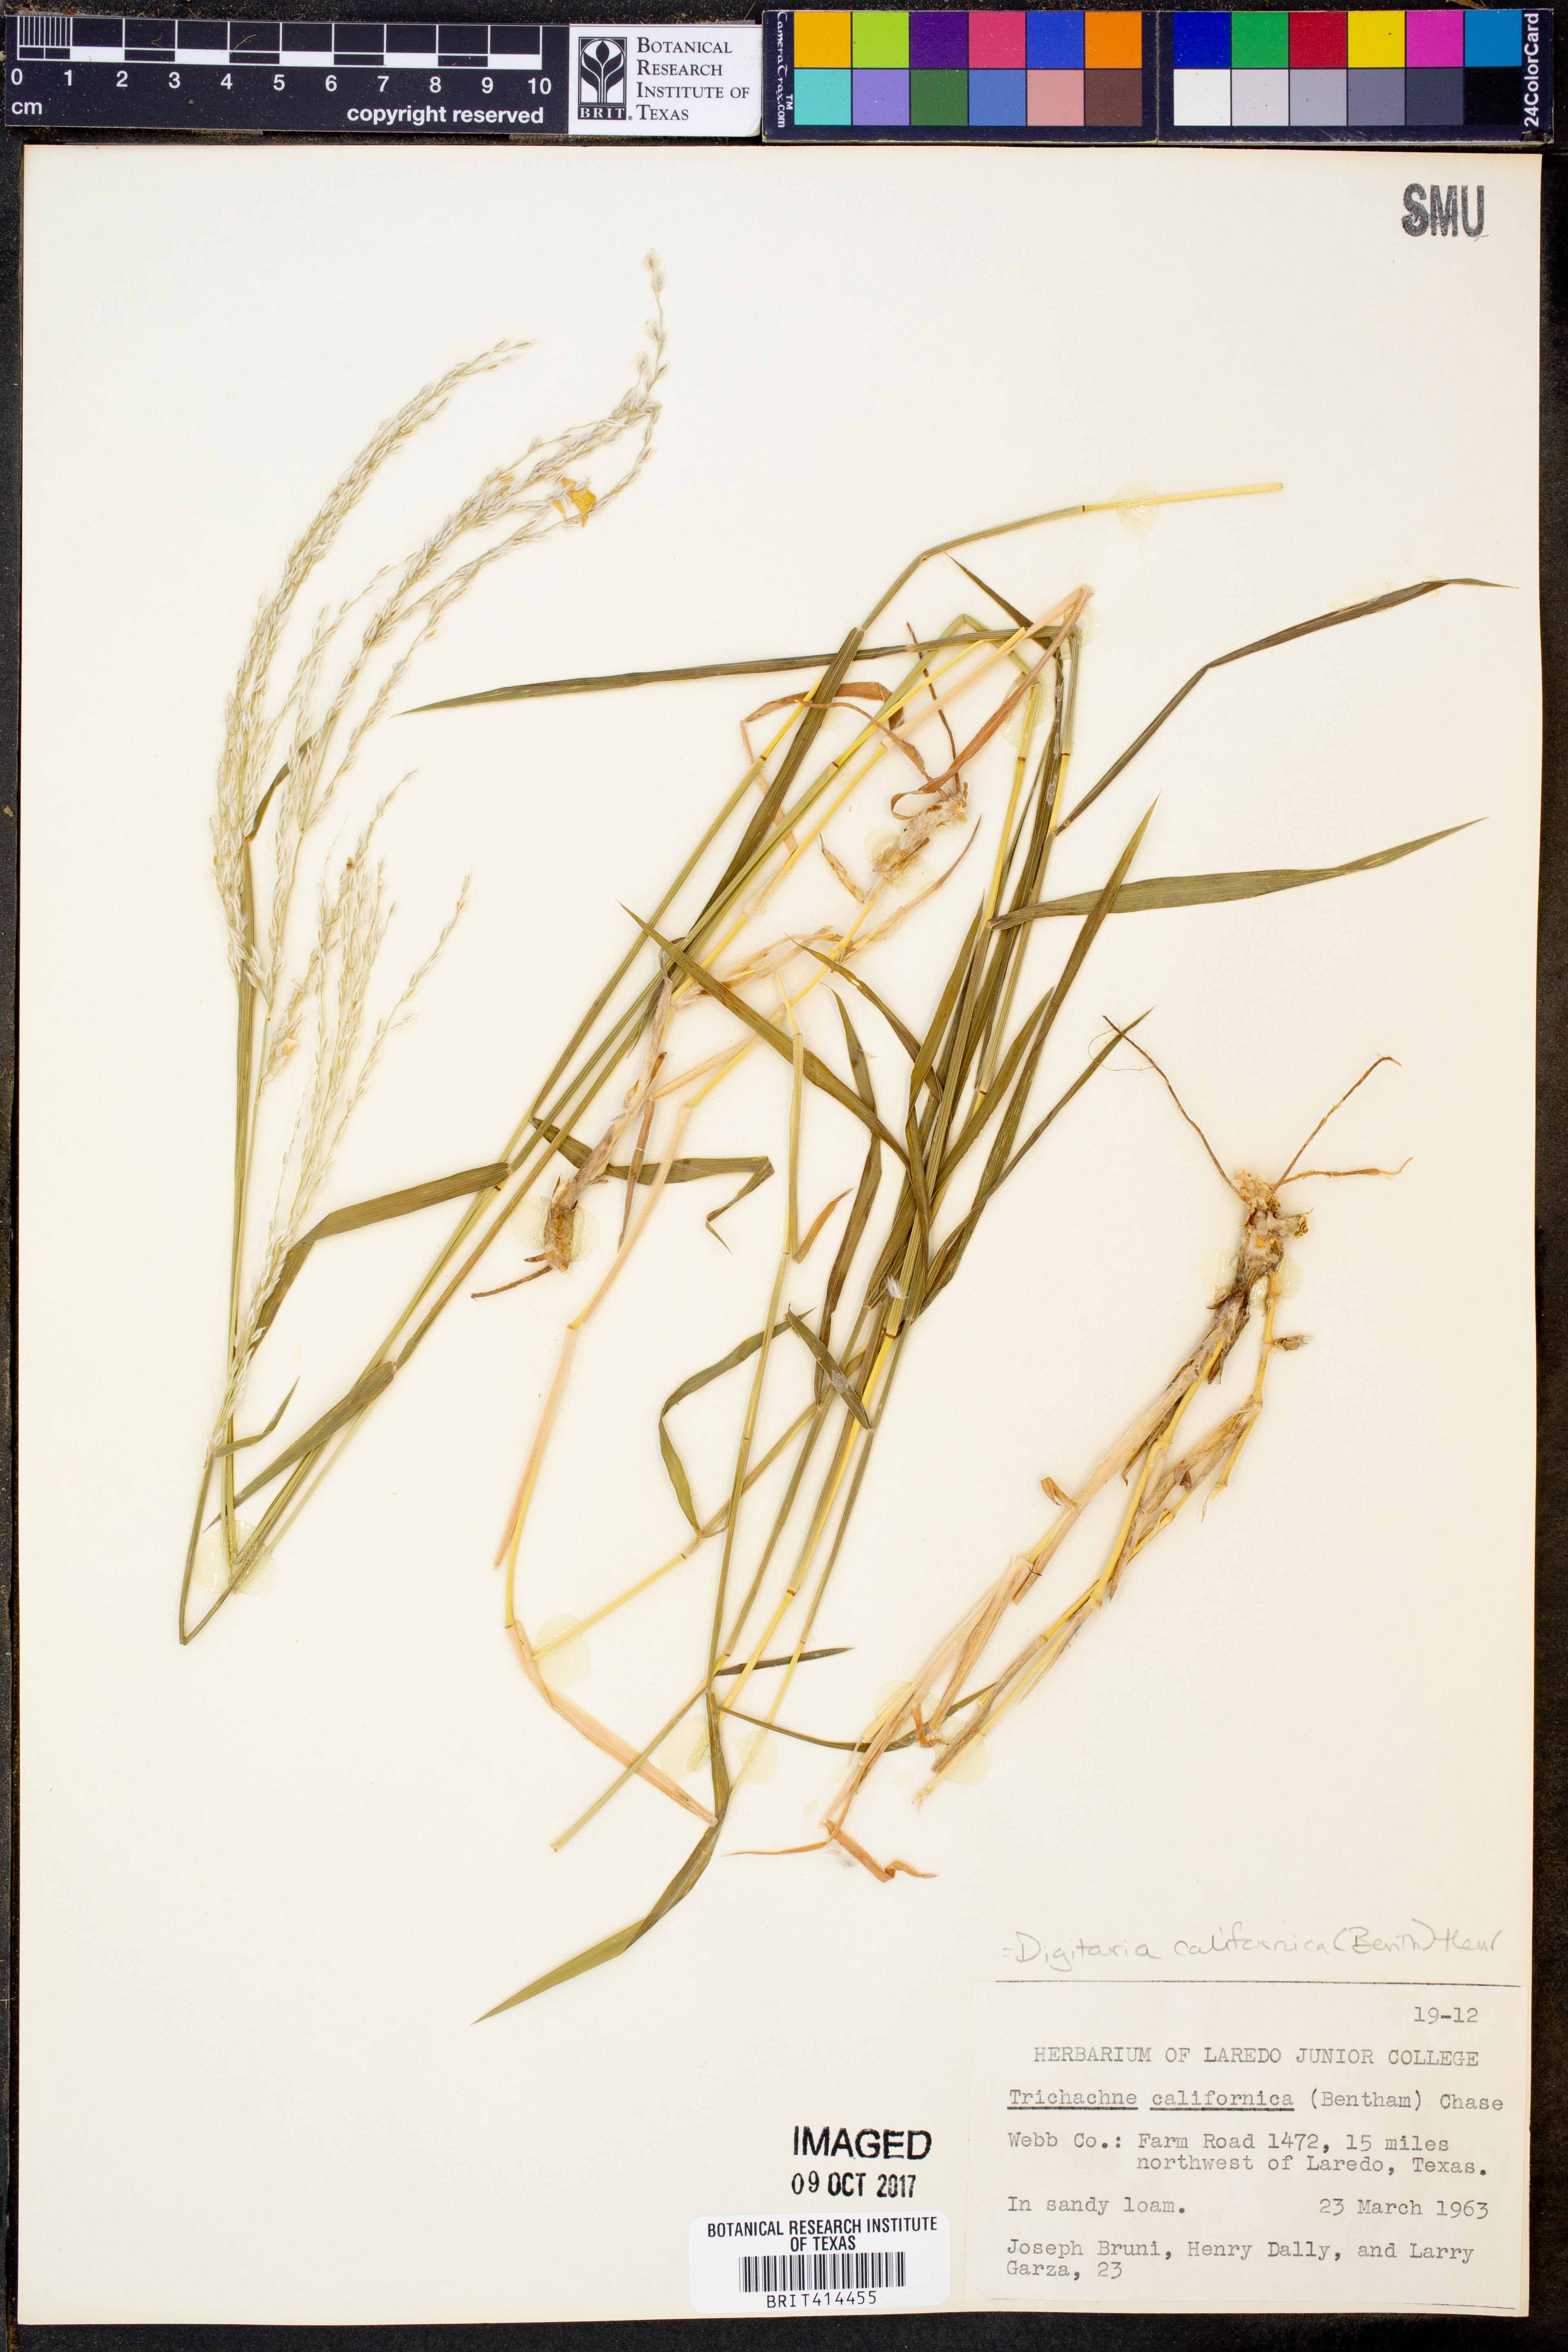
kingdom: Plantae
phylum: Tracheophyta
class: Liliopsida
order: Poales
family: Poaceae
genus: Digitaria
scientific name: Digitaria californica
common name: Arizona cottontop
